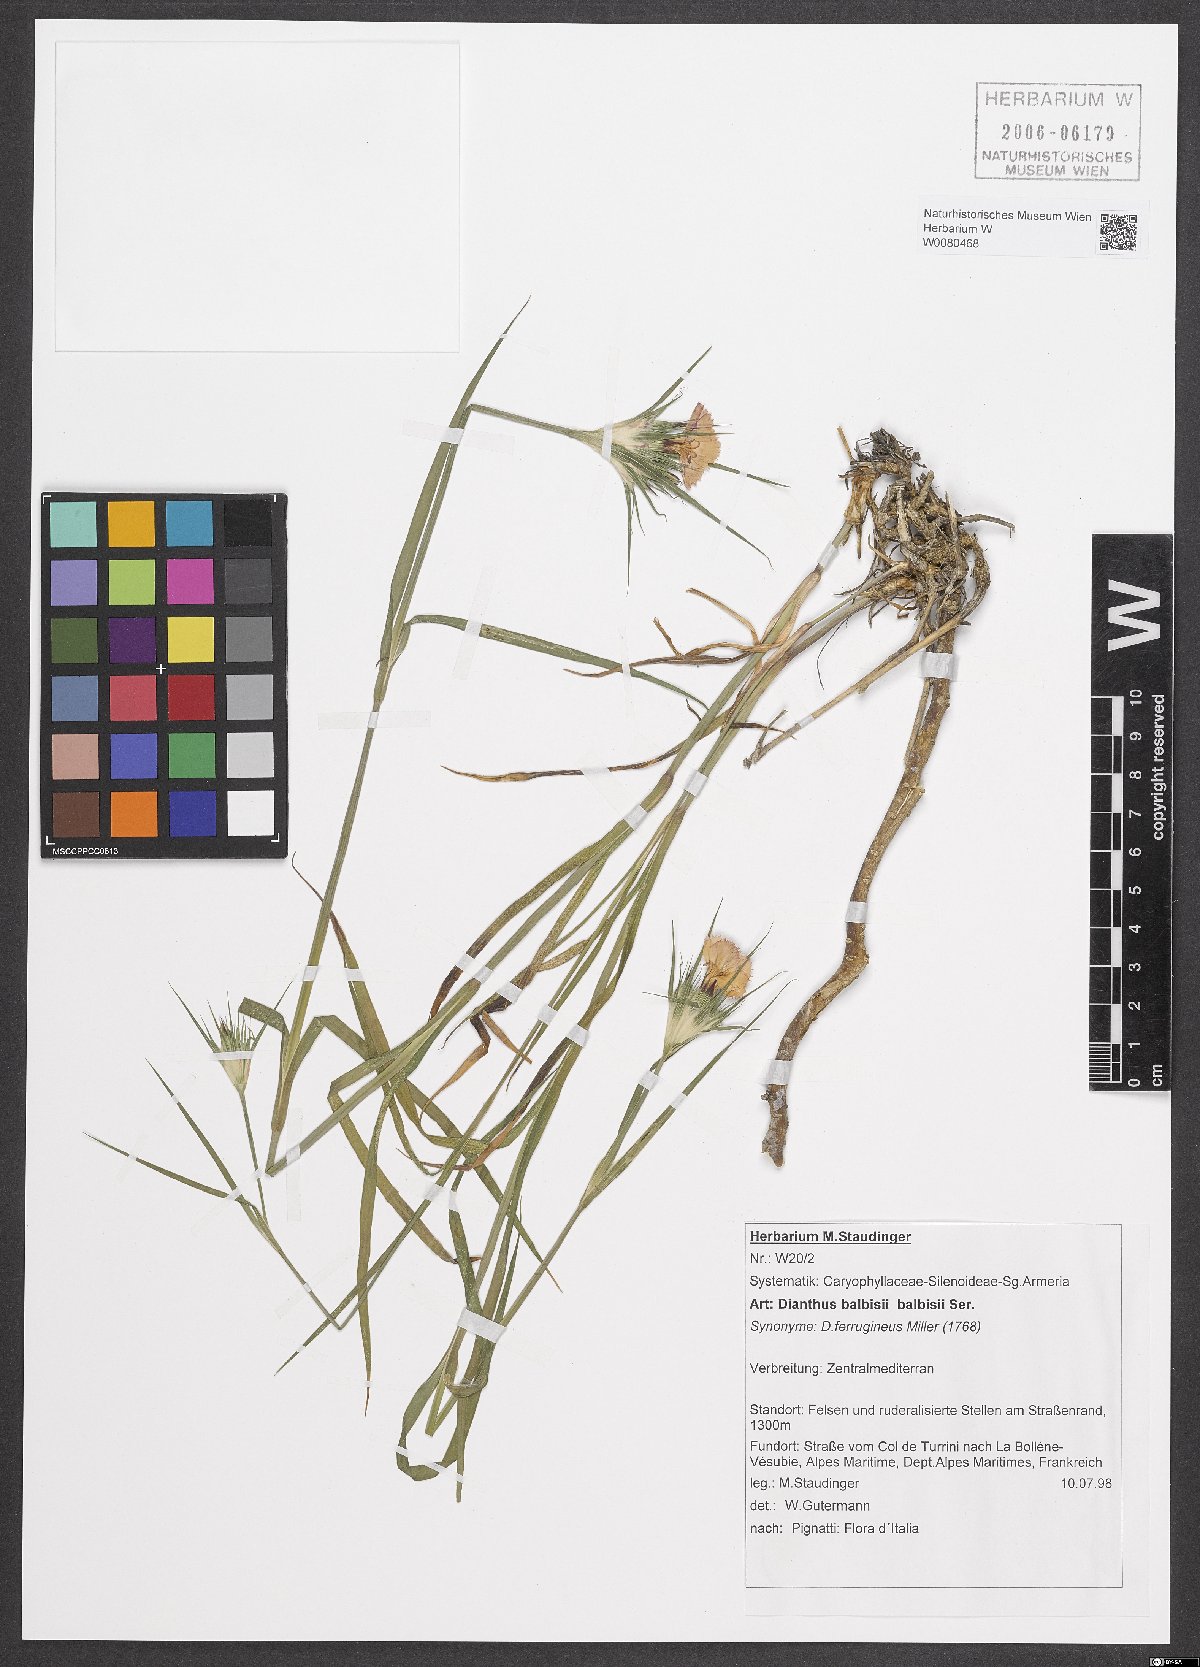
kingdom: Plantae
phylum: Tracheophyta
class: Magnoliopsida
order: Caryophyllales
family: Caryophyllaceae
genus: Dianthus
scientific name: Dianthus balbisii
